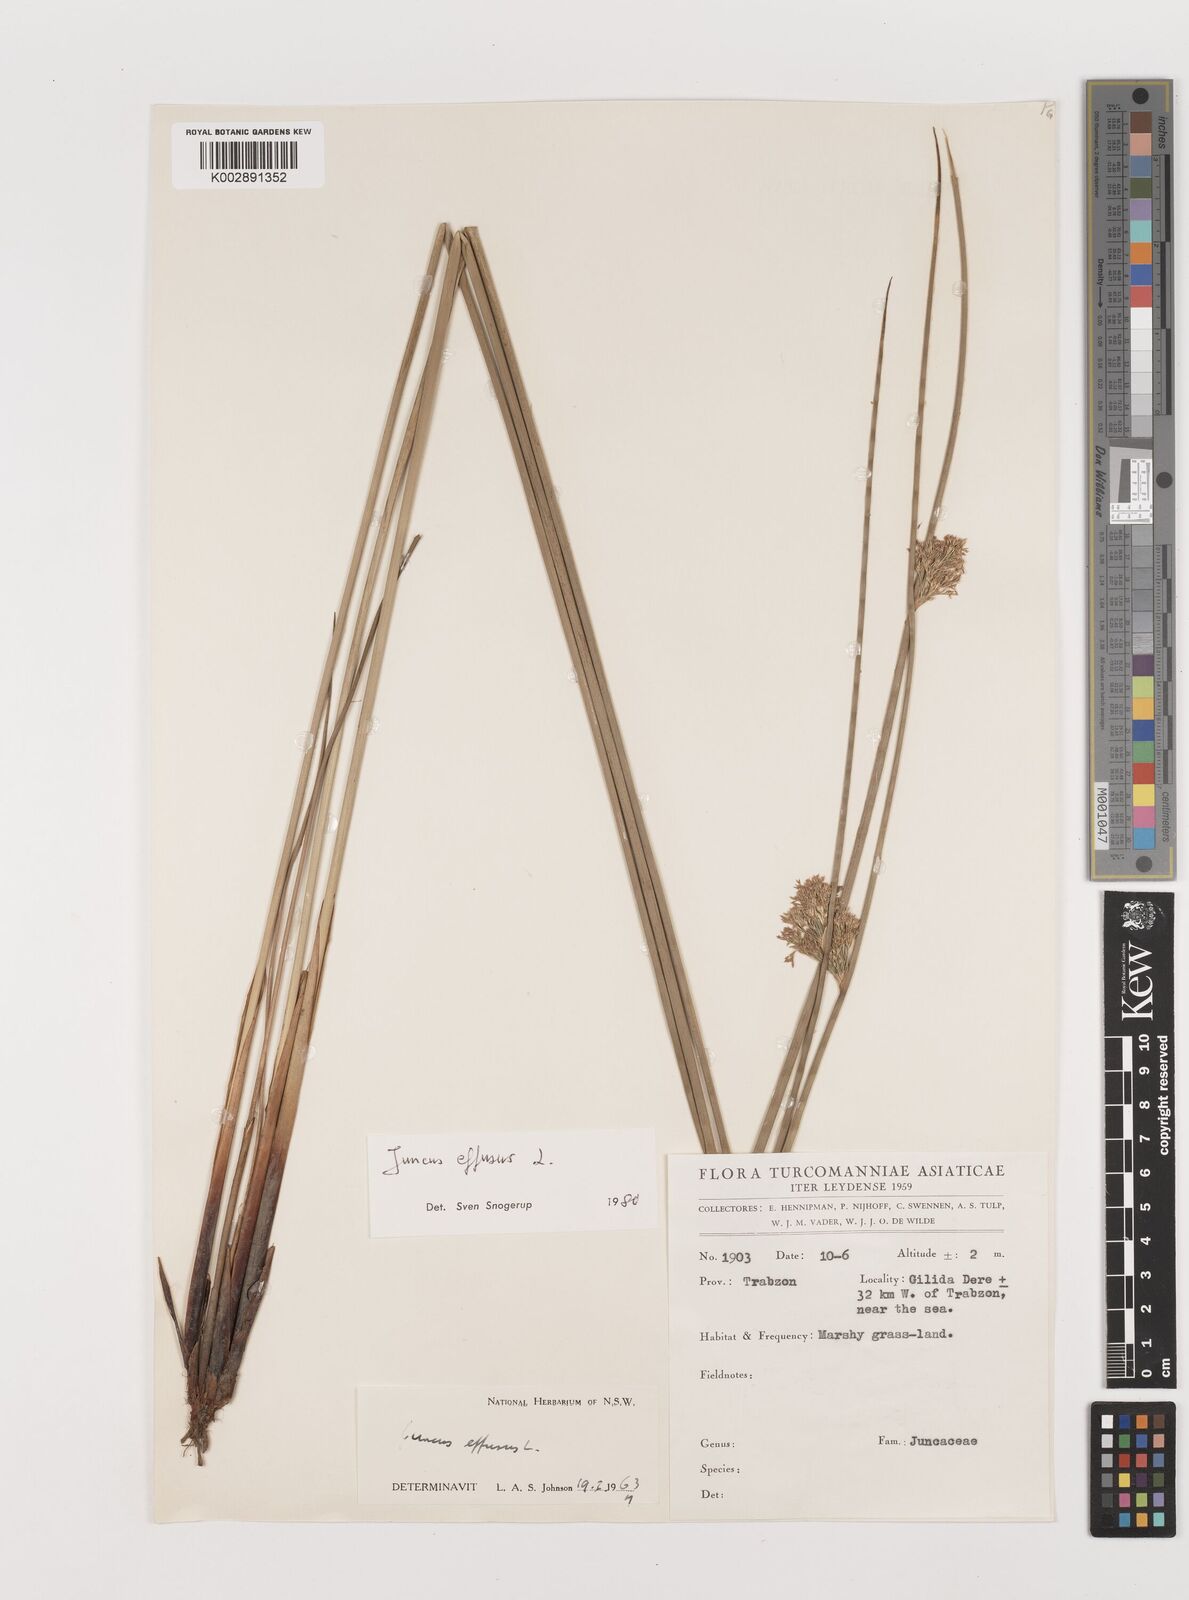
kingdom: Plantae
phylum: Tracheophyta
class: Liliopsida
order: Poales
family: Juncaceae
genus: Juncus
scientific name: Juncus effusus
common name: Soft rush
